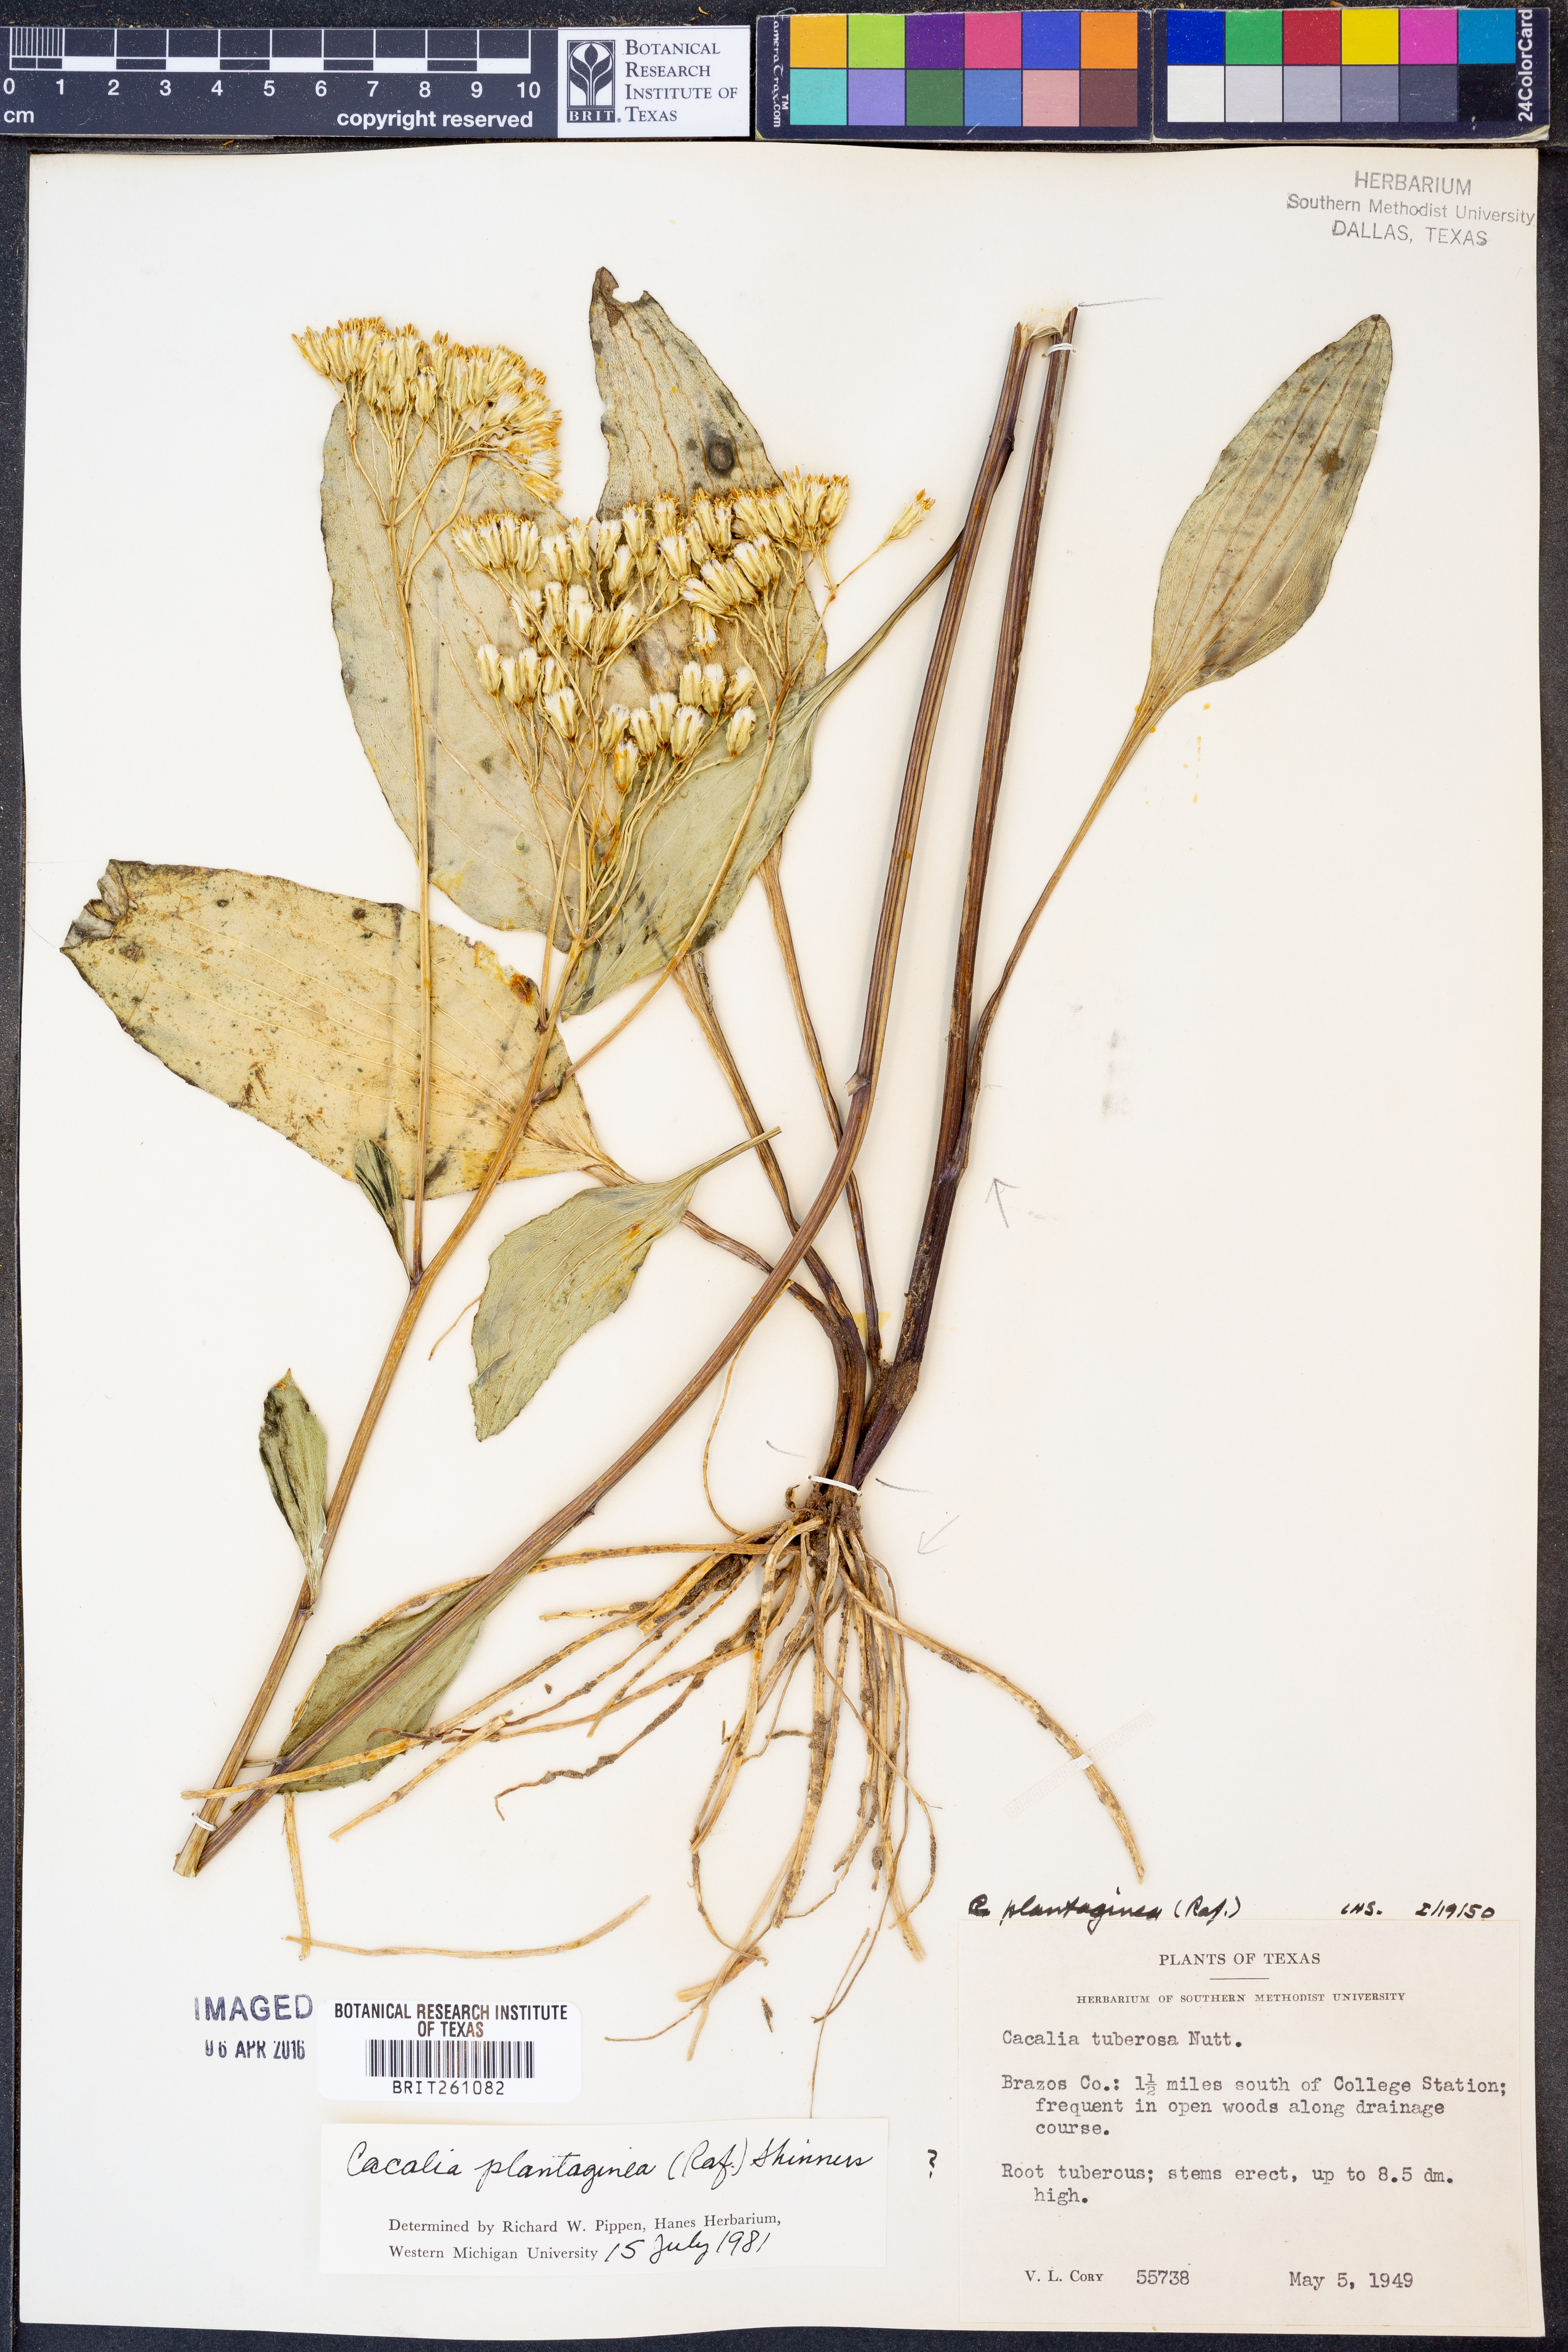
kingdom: Plantae
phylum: Tracheophyta
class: Magnoliopsida
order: Asterales
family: Asteraceae
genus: Arnoglossum
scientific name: Arnoglossum plantagineum
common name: Groove-stemmed indian-plantain
